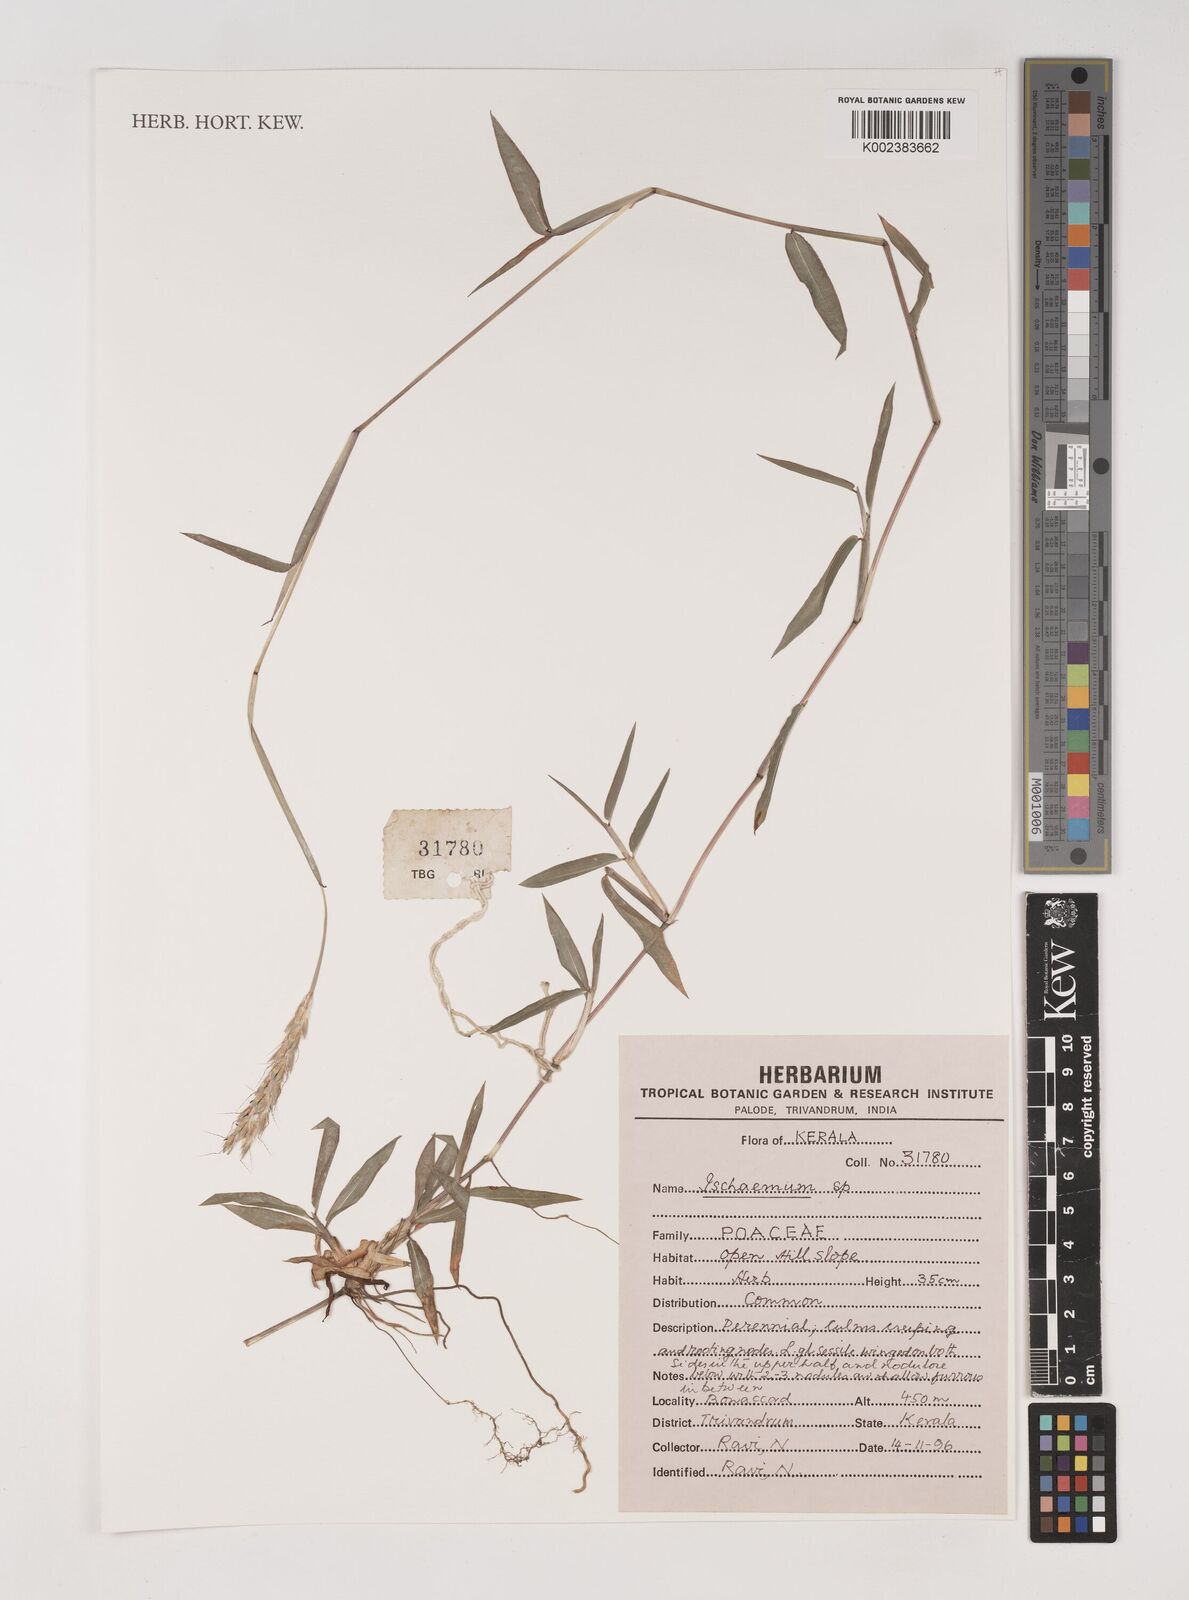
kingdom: Plantae
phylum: Tracheophyta
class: Liliopsida
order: Poales
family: Poaceae
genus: Ischaemum
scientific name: Ischaemum
